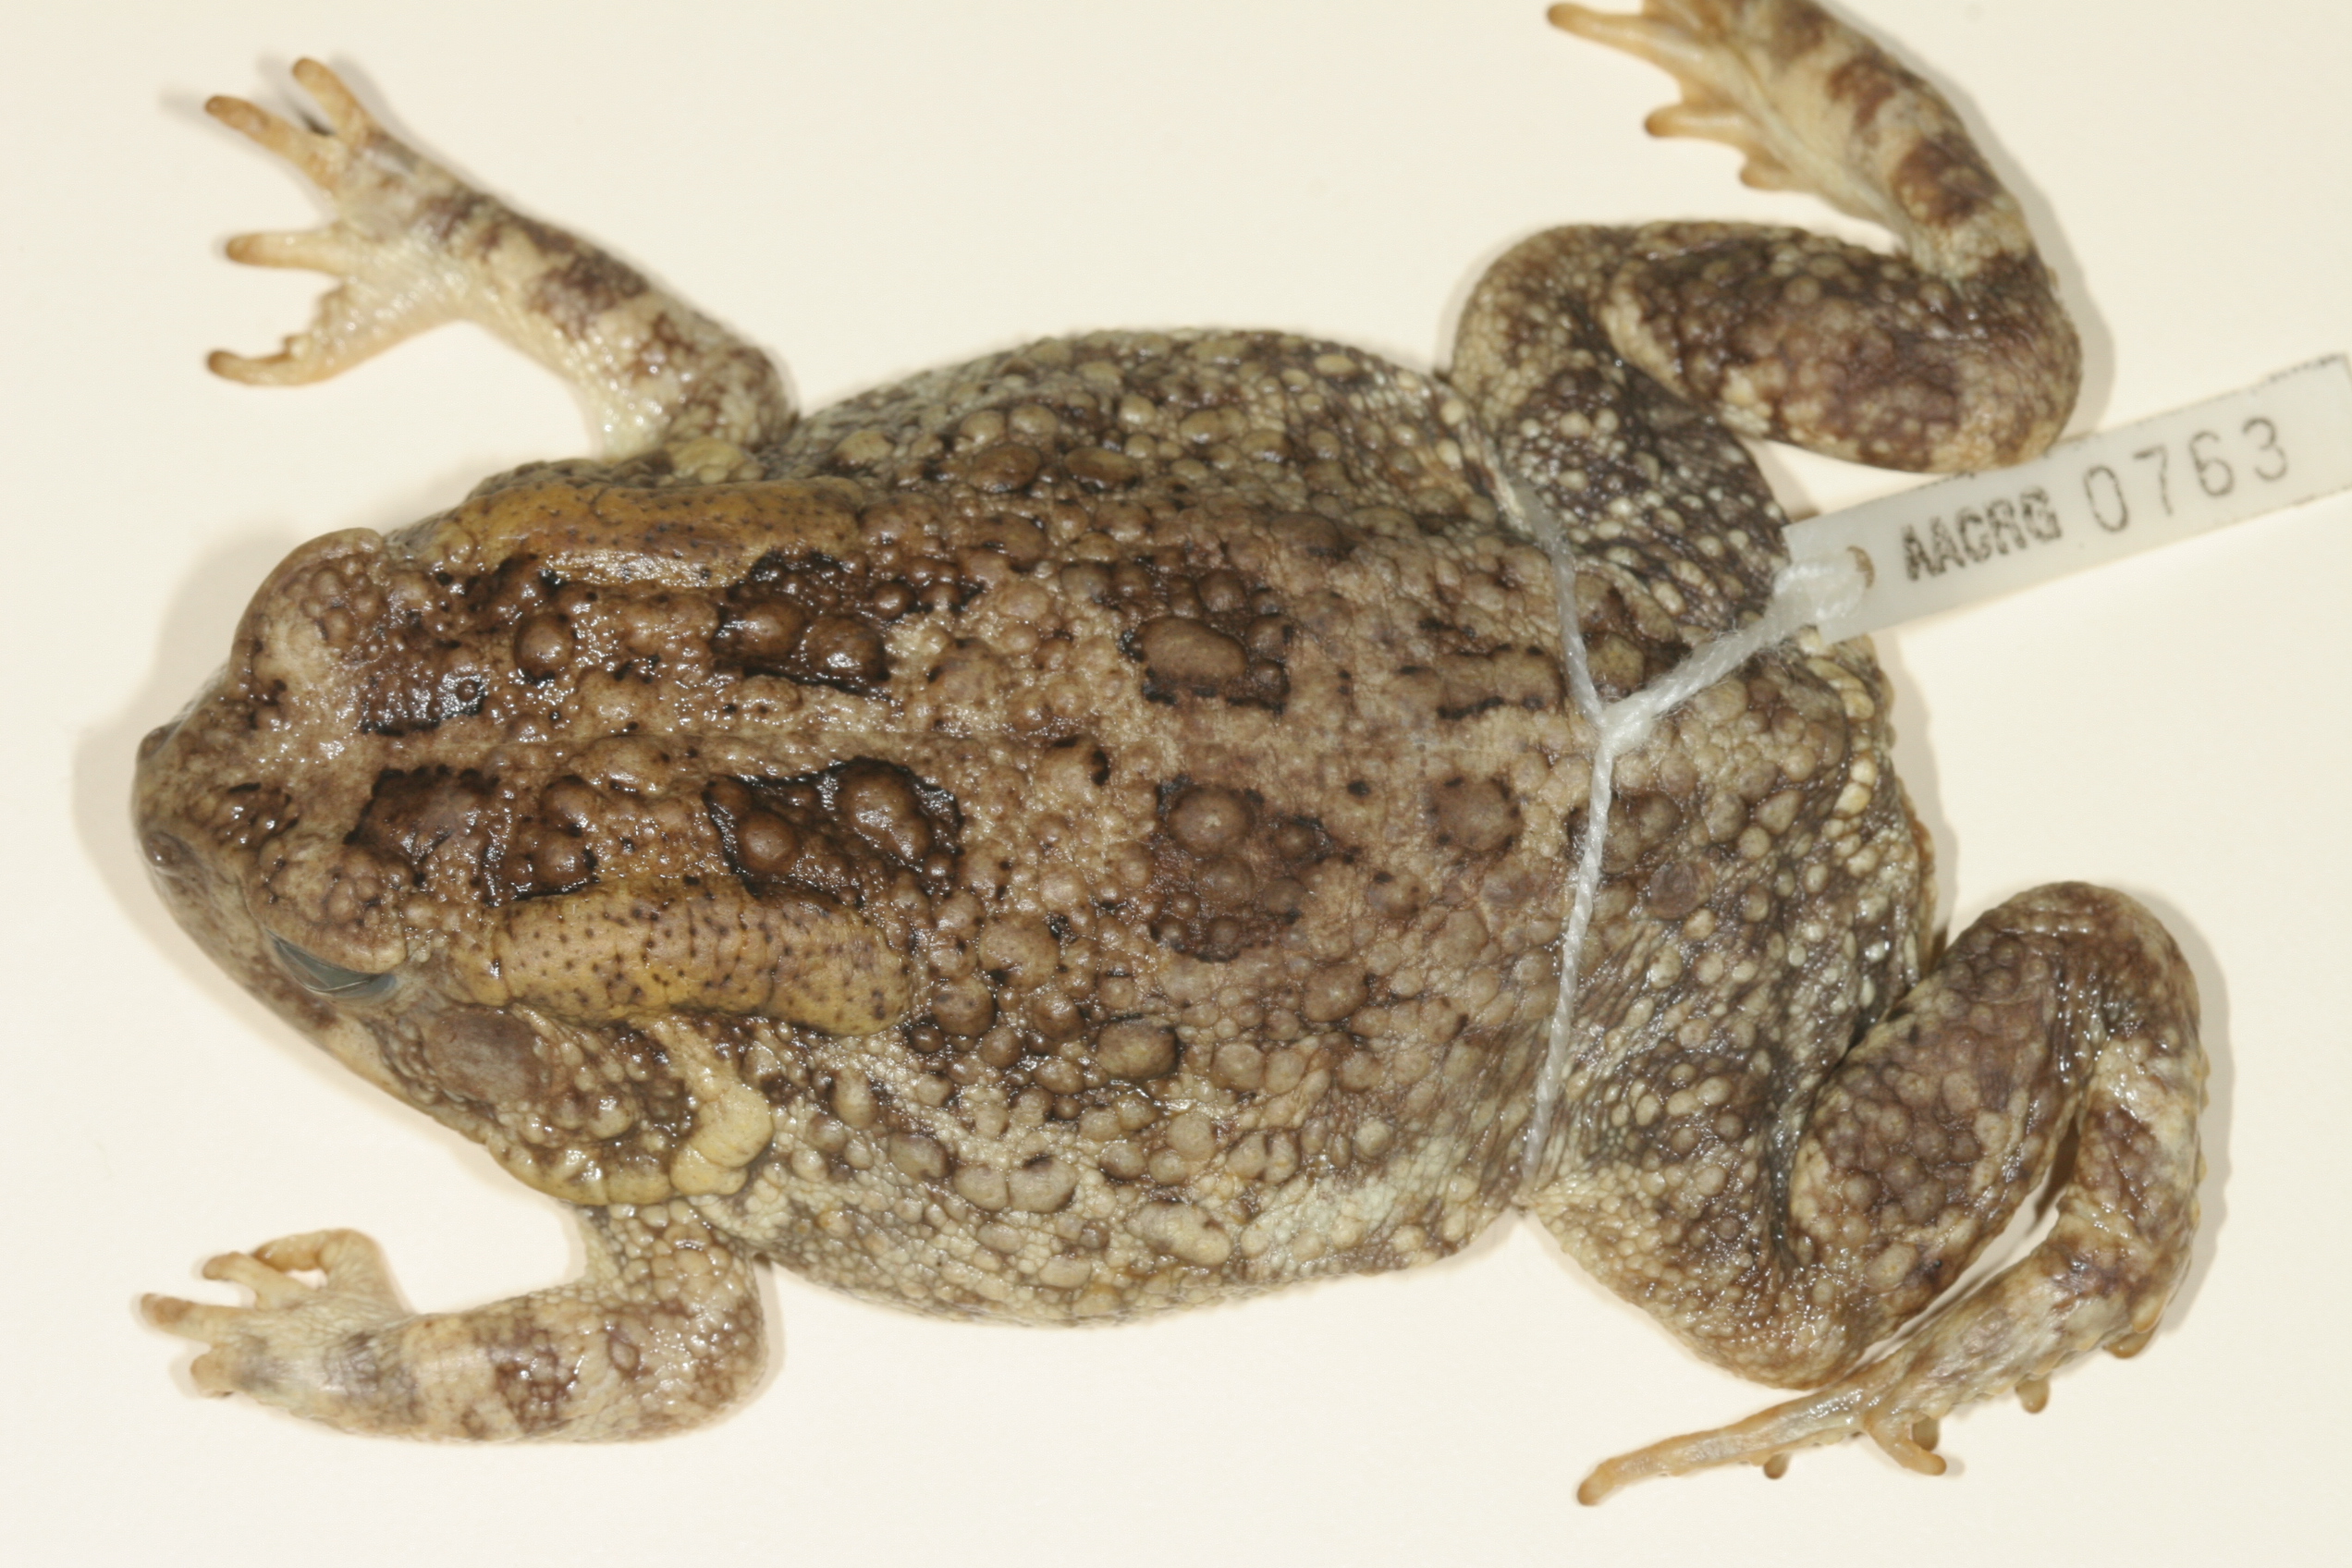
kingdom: Animalia
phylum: Chordata
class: Amphibia
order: Anura
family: Bufonidae
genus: Sclerophrys
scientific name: Sclerophrys gutturalis
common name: African common toad
